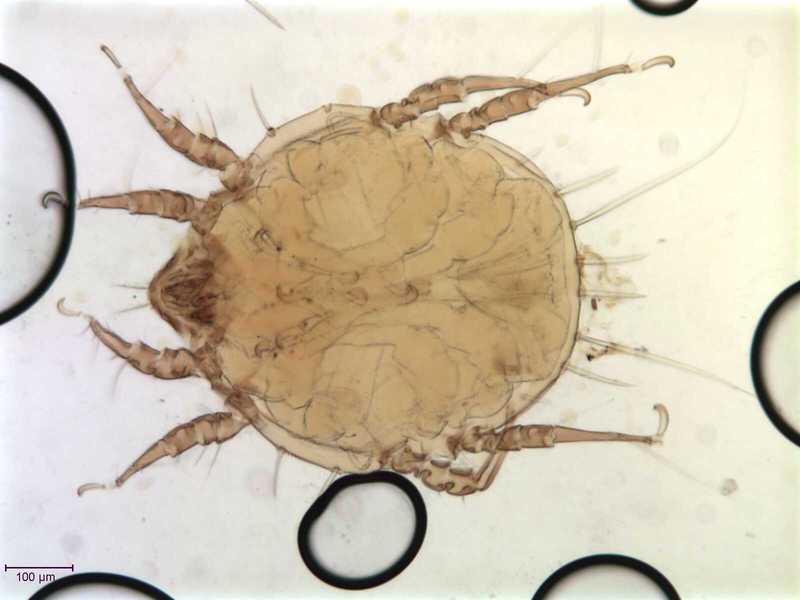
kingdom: Animalia
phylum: Arthropoda
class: Arachnida
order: Sarcoptiformes
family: Chaetodactylidae
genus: Sennertia
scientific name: Sennertia perturbans
